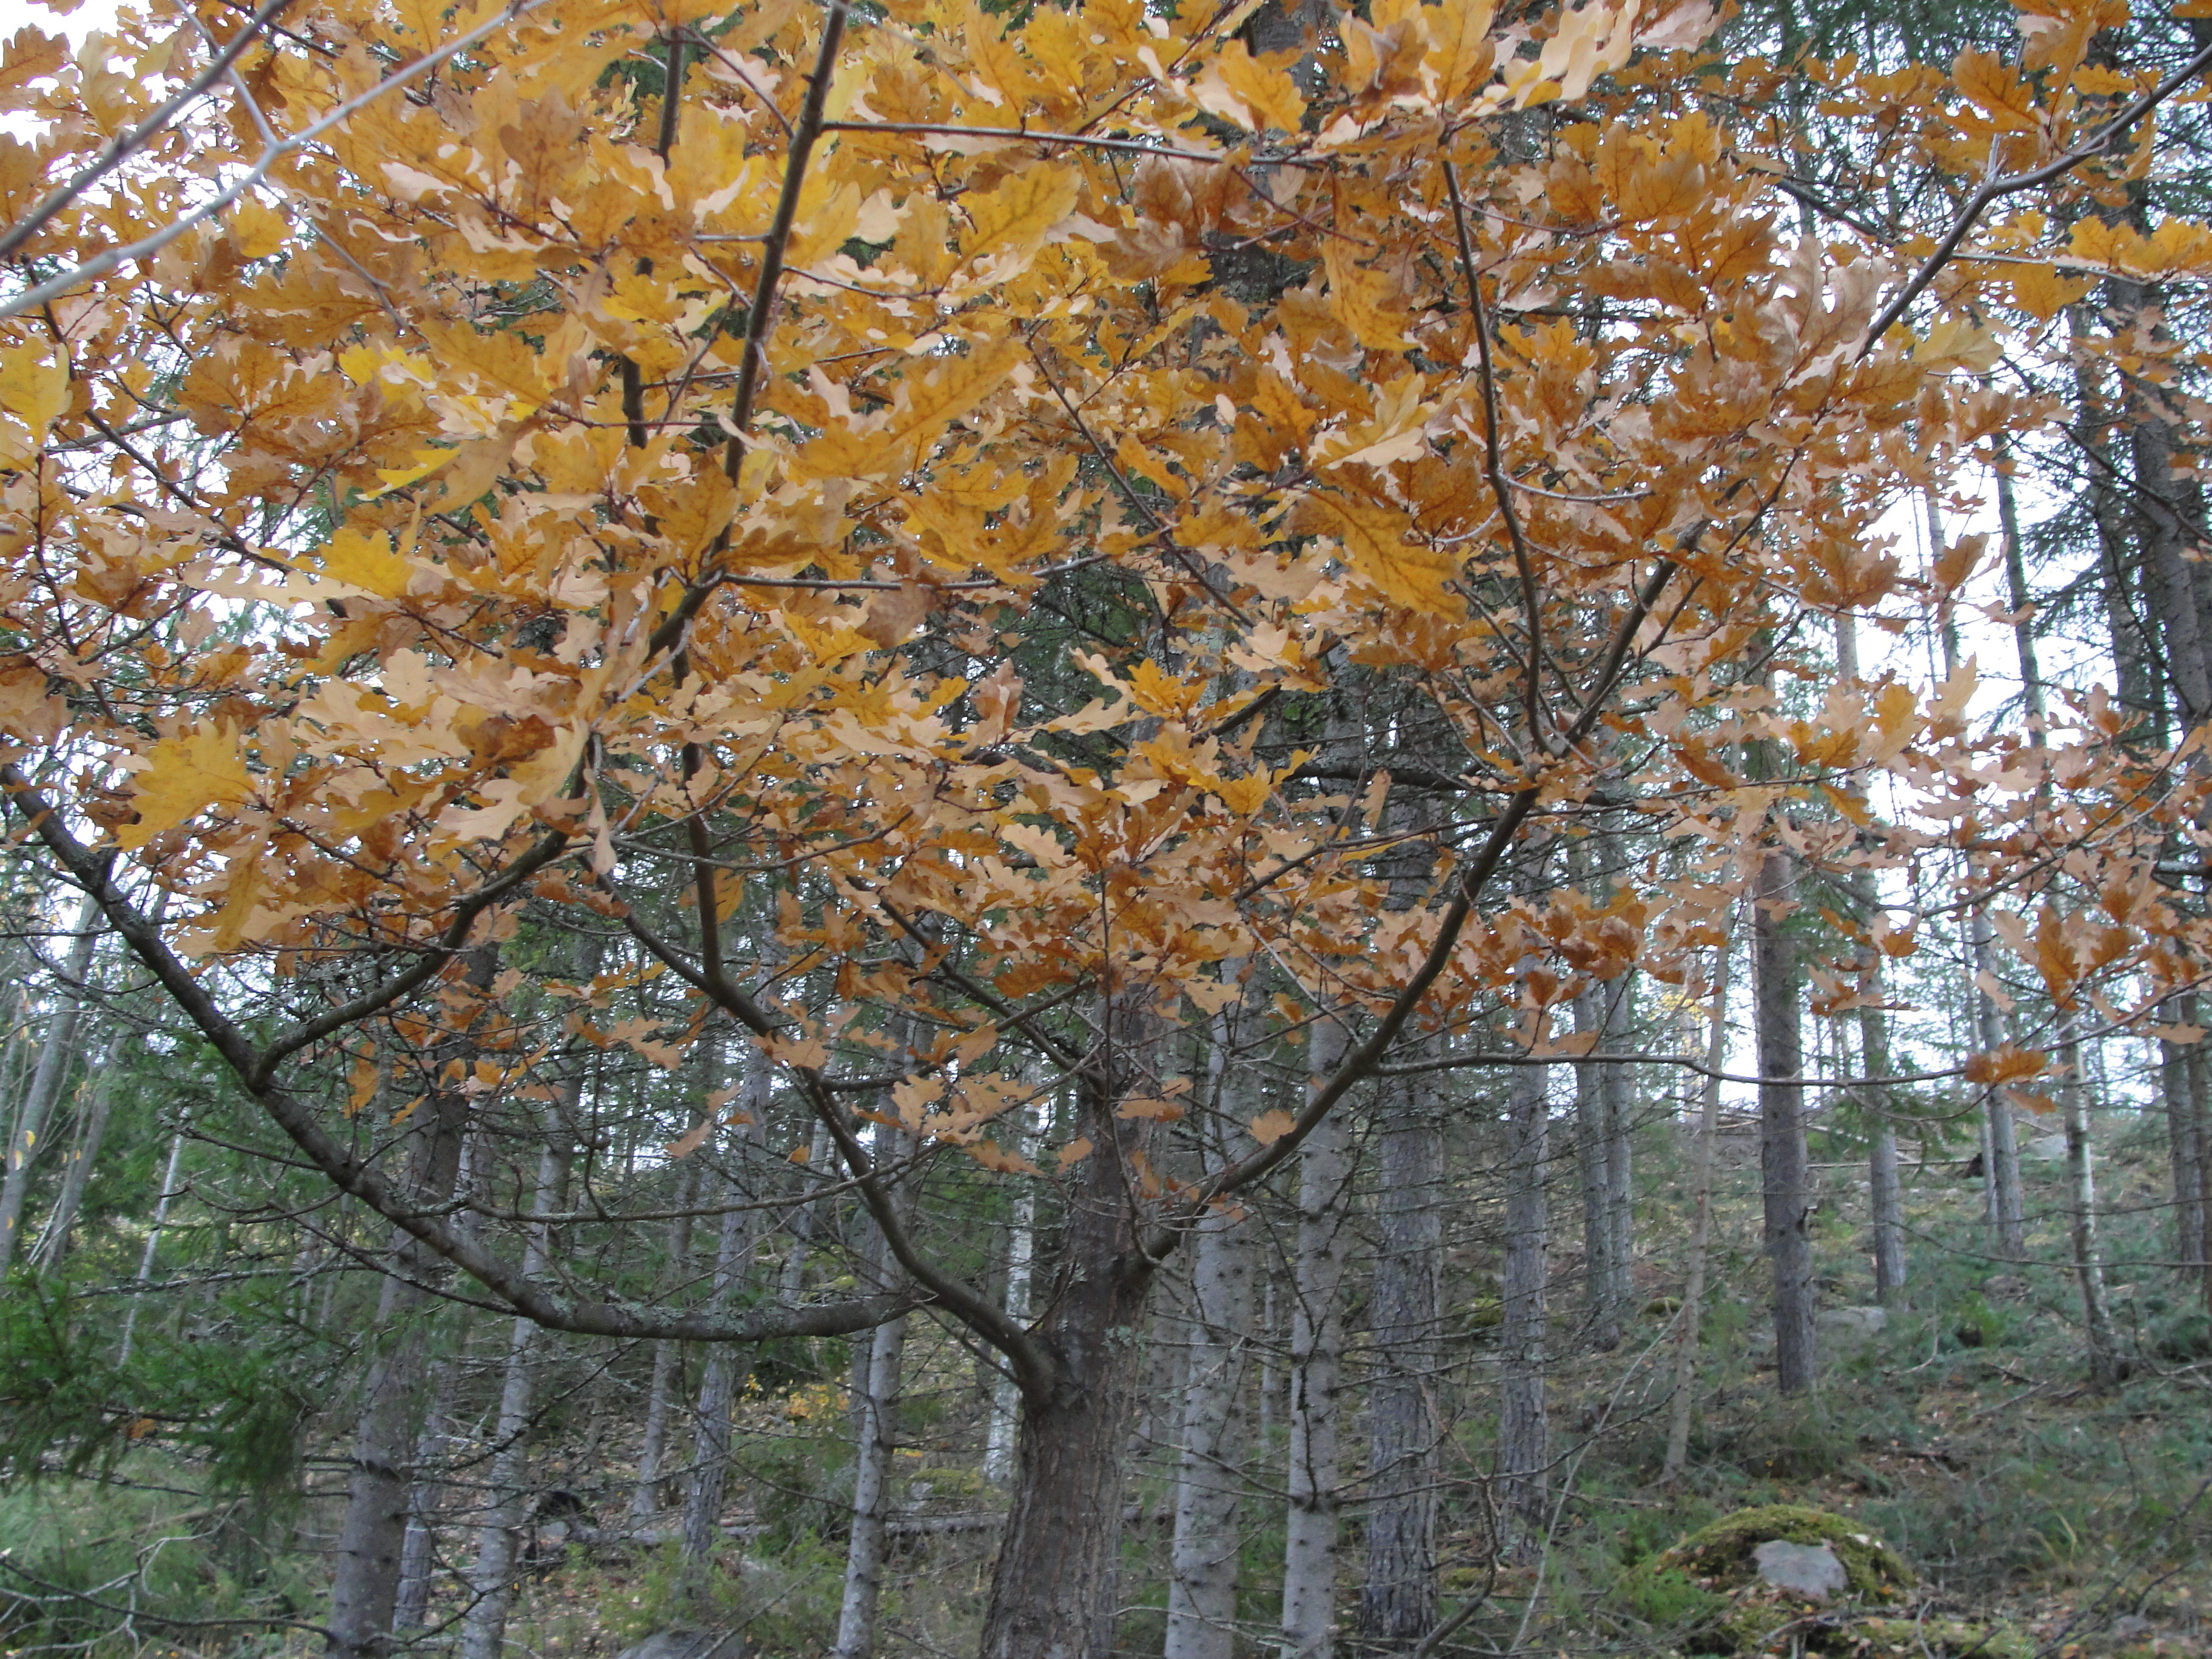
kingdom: Plantae
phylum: Tracheophyta
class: Magnoliopsida
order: Fagales
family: Fagaceae
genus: Quercus
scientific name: Quercus robur
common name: Pedunculate oak
